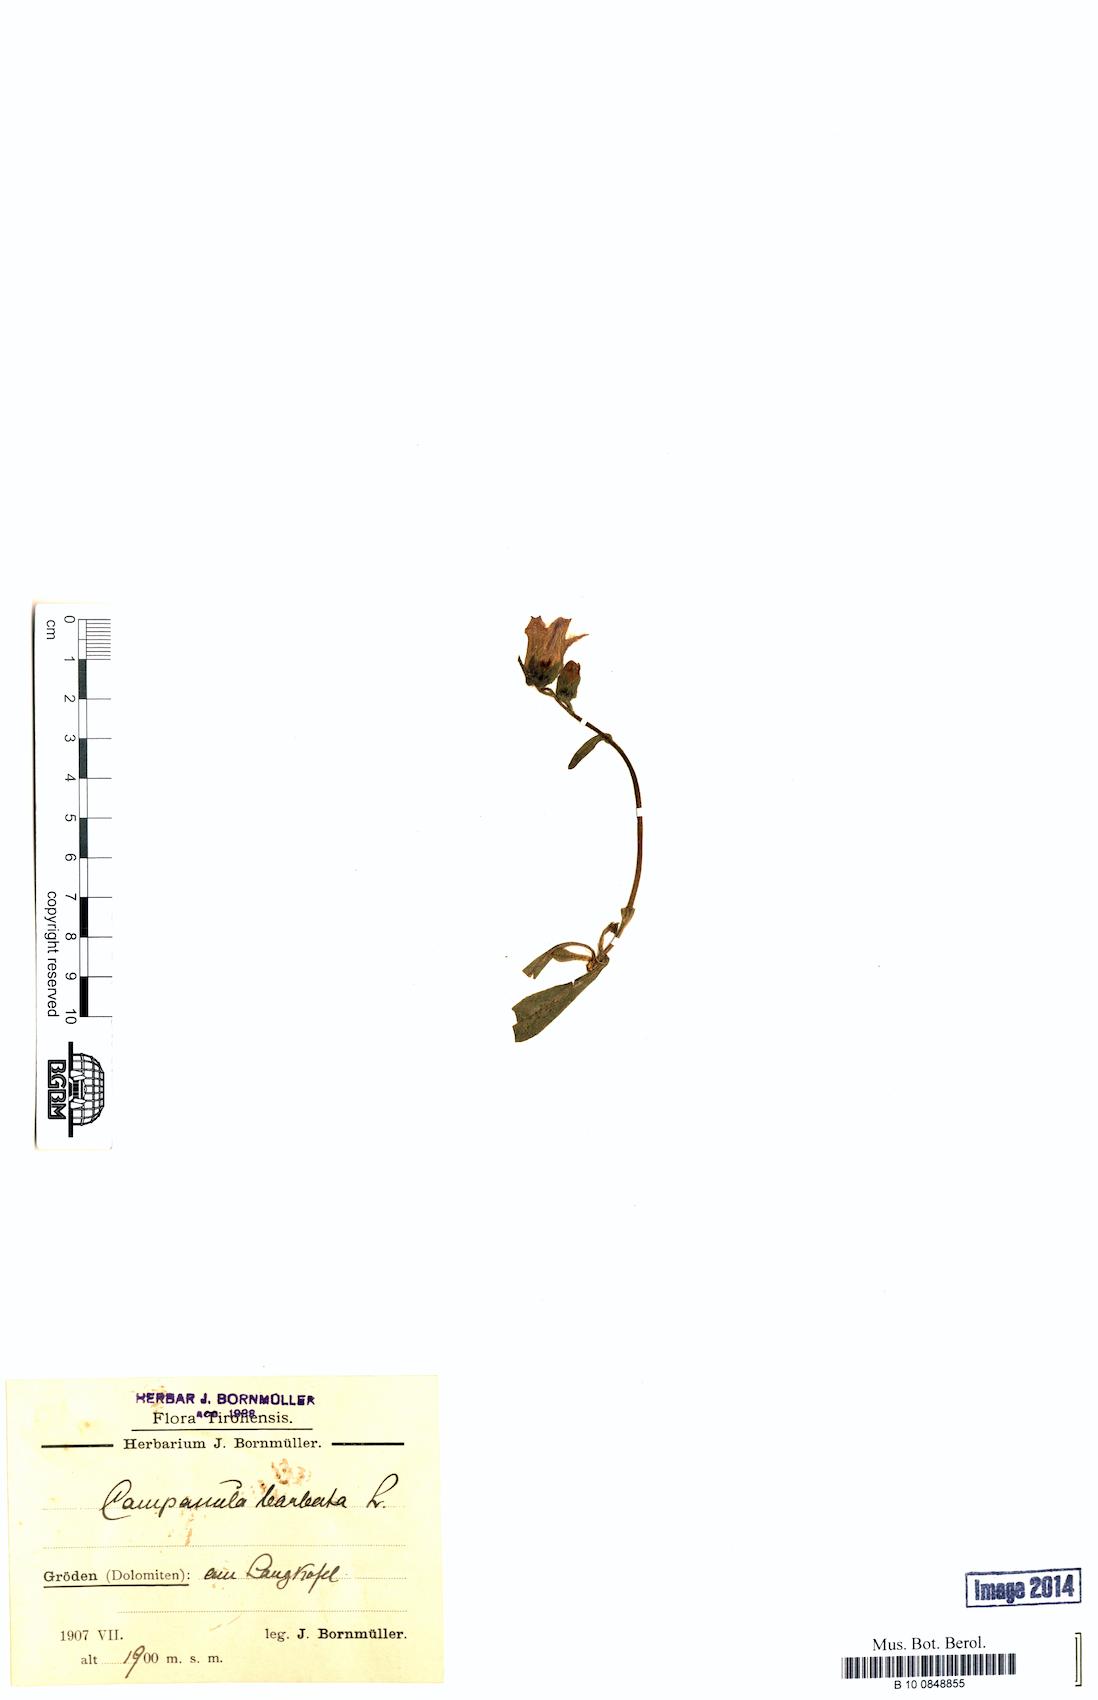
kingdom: Plantae
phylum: Tracheophyta
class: Magnoliopsida
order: Asterales
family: Campanulaceae
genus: Campanula
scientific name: Campanula barbata
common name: Bearded bellflower
